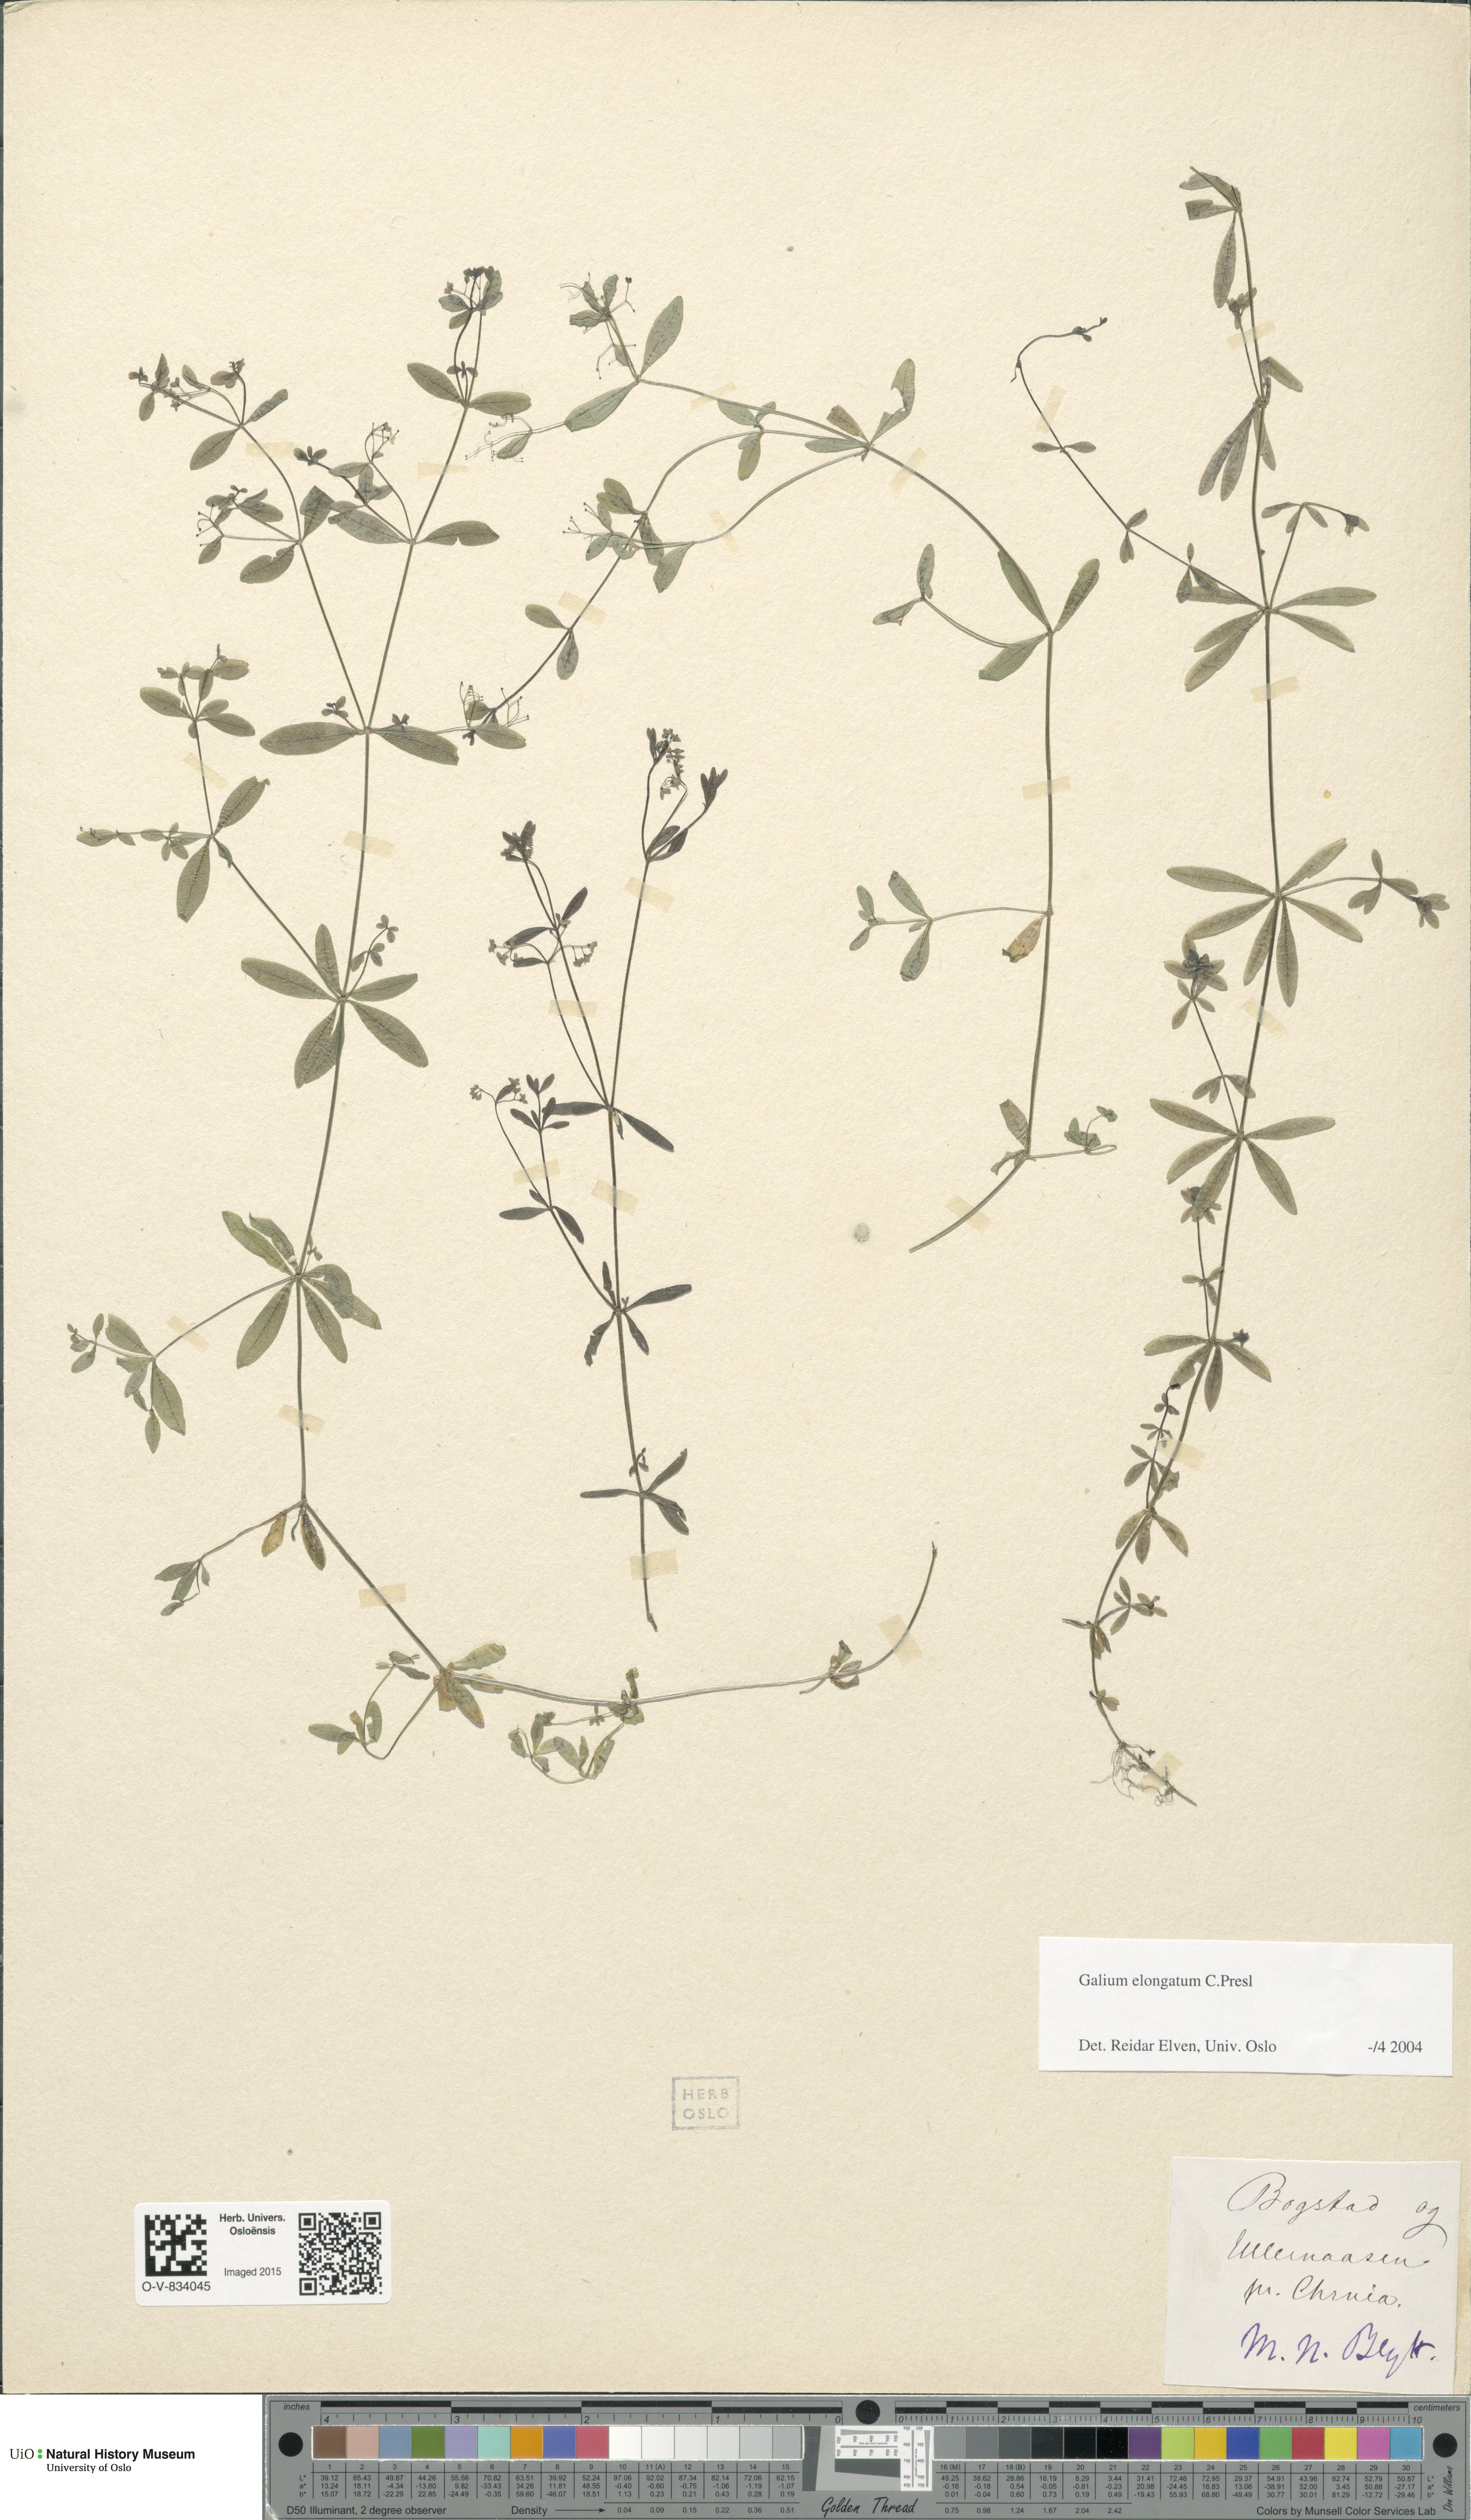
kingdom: Plantae
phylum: Tracheophyta
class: Magnoliopsida
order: Gentianales
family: Rubiaceae
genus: Galium
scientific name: Galium elongatum
